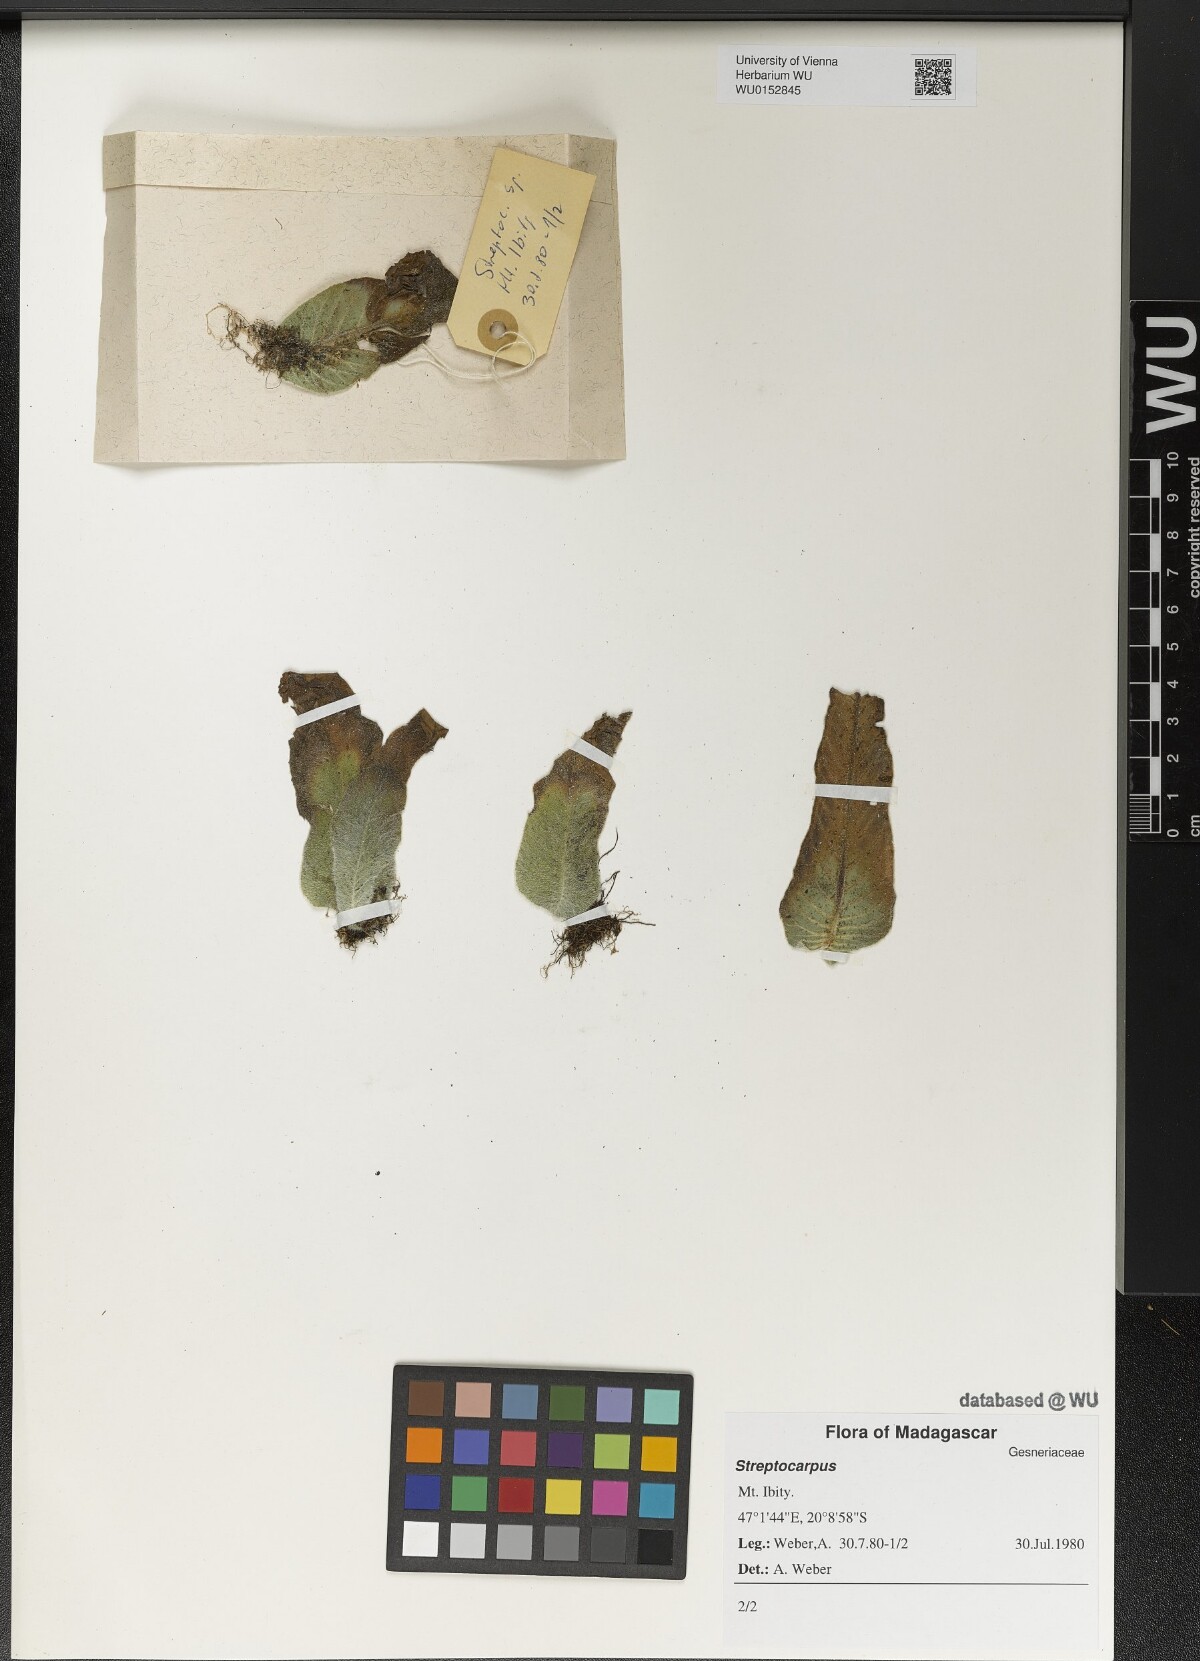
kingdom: Plantae
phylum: Tracheophyta
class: Magnoliopsida
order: Lamiales
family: Gesneriaceae
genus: Streptocarpus
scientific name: Streptocarpus
